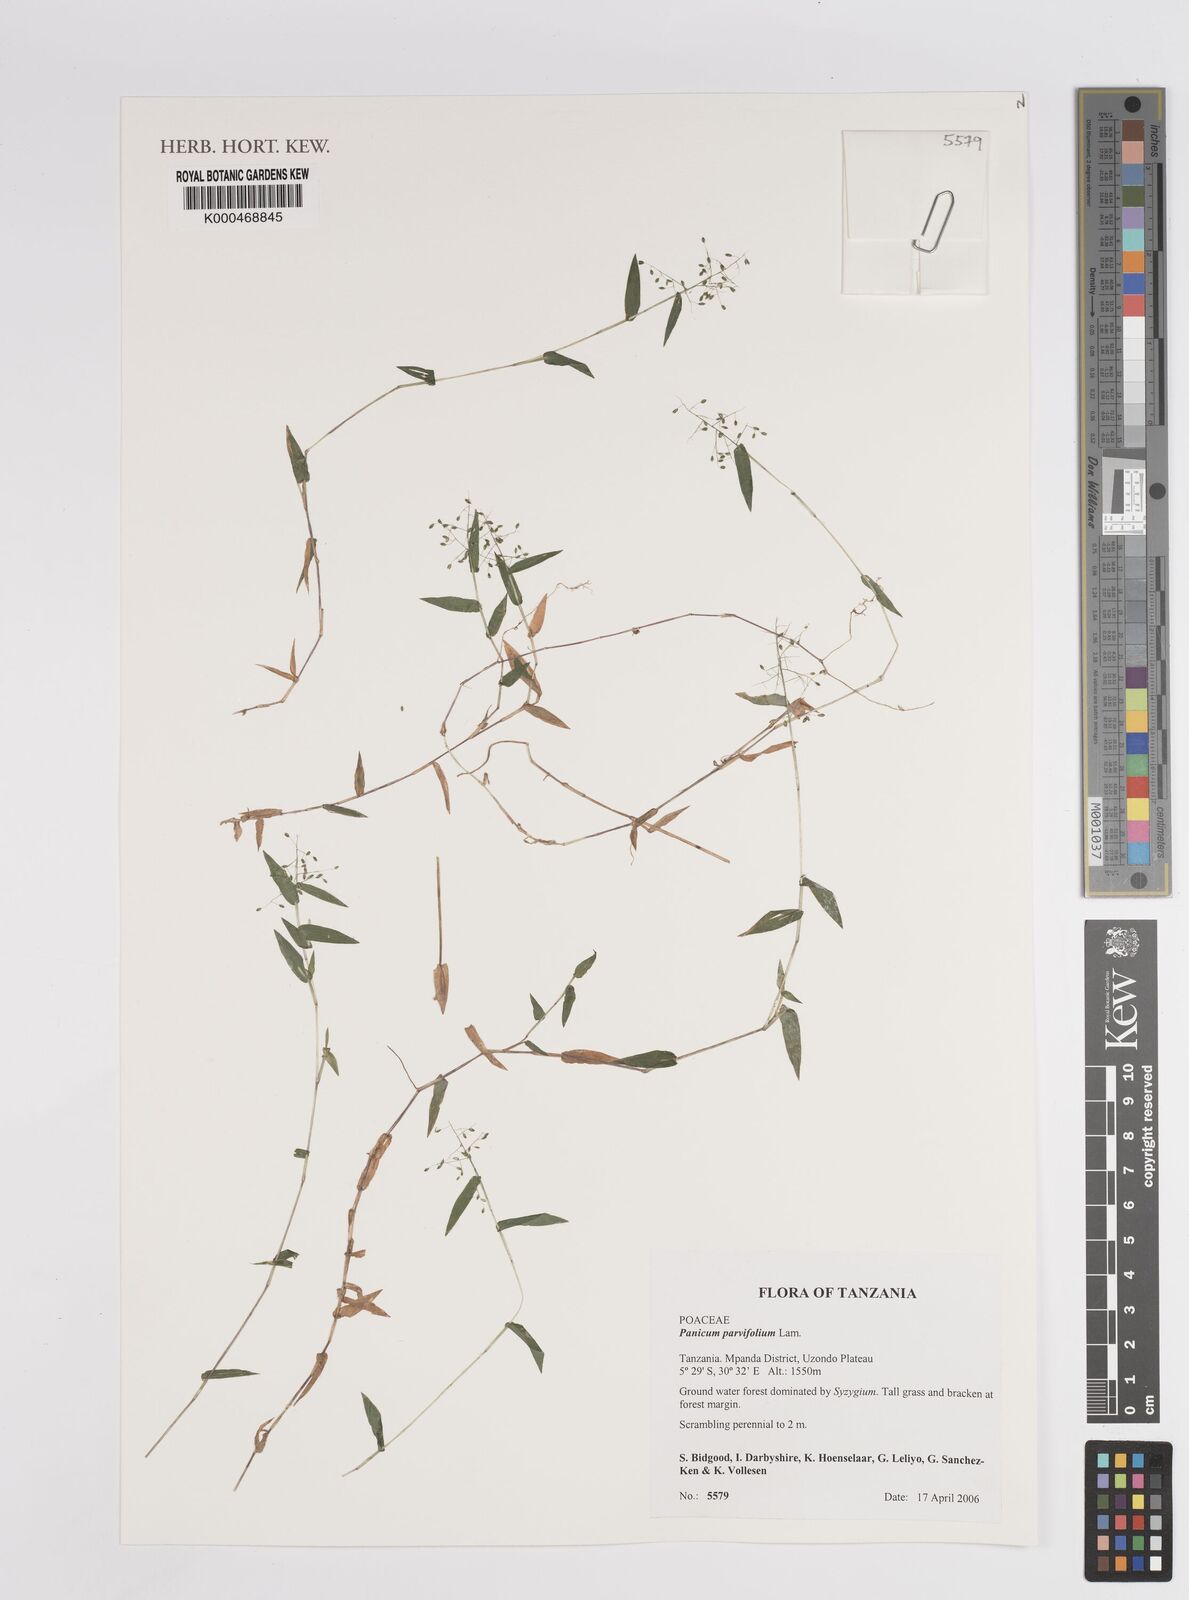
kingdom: Plantae
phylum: Tracheophyta
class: Liliopsida
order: Poales
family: Poaceae
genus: Trichanthecium
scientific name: Trichanthecium parvifolium
